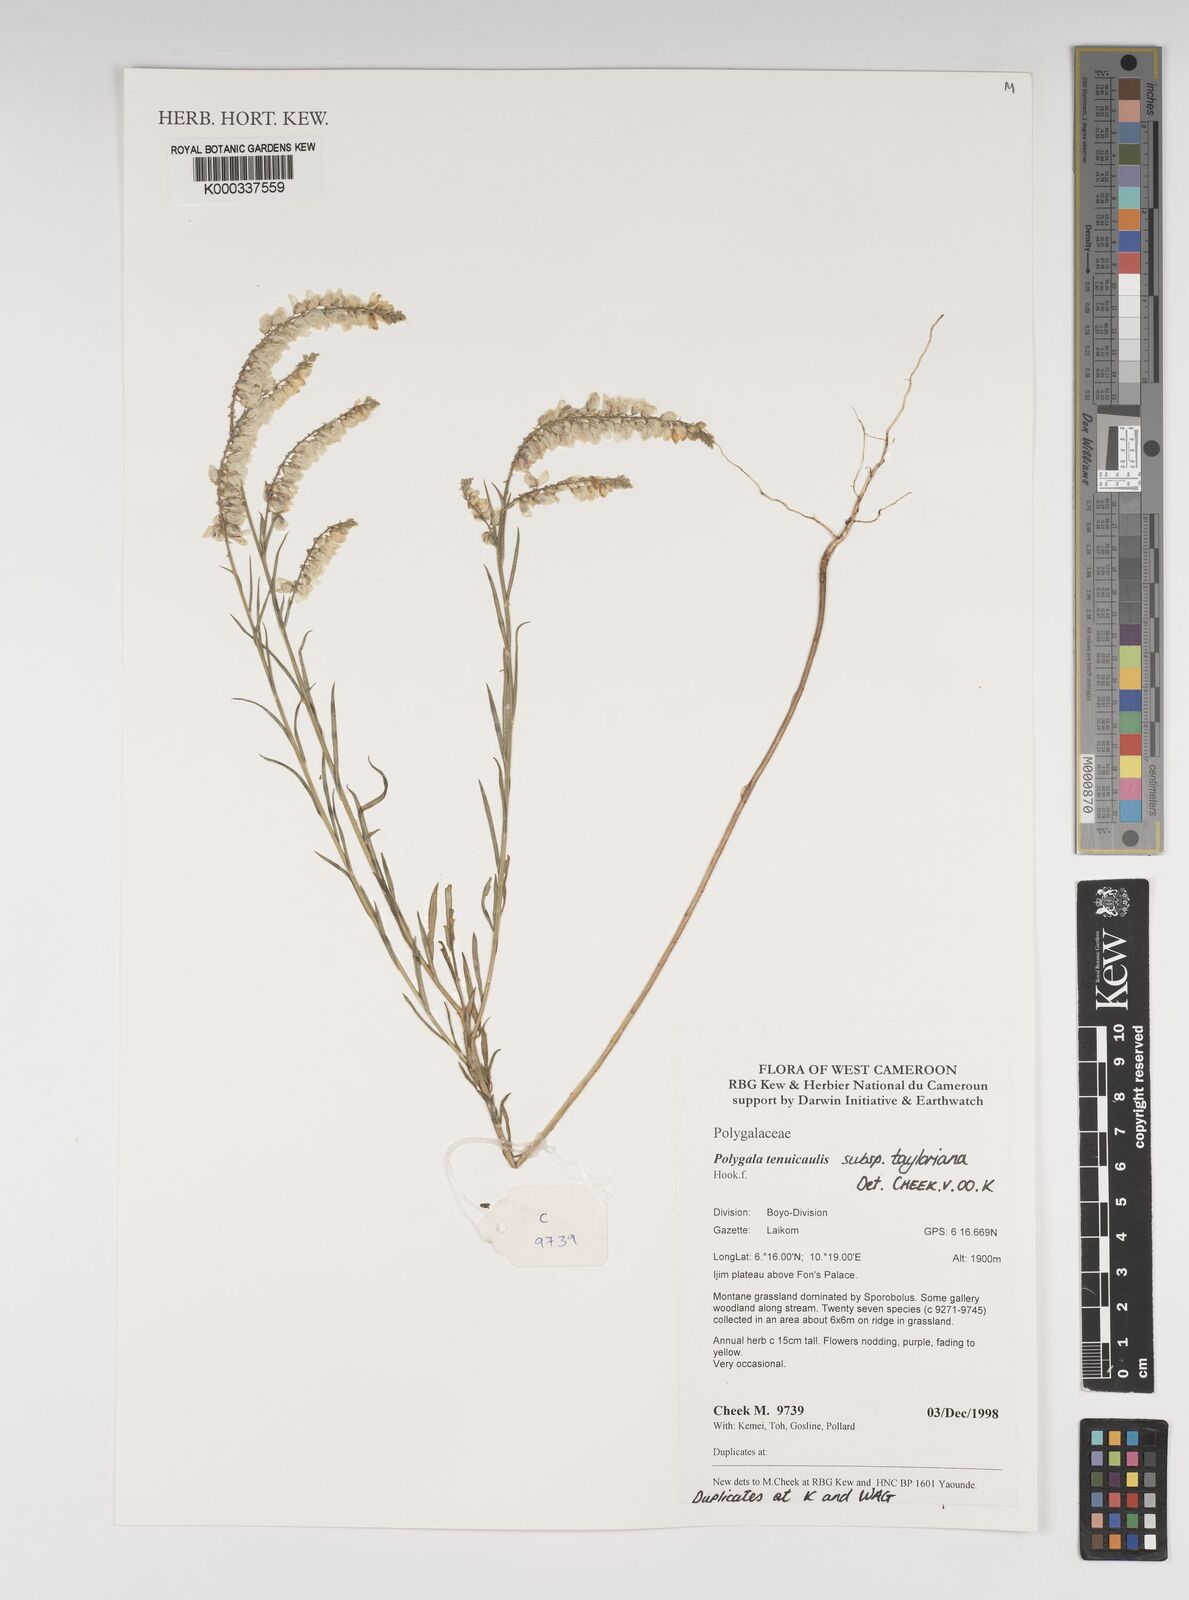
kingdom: Plantae
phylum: Tracheophyta
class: Magnoliopsida
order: Fabales
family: Polygalaceae
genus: Polygala
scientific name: Polygala tenuicaulis
